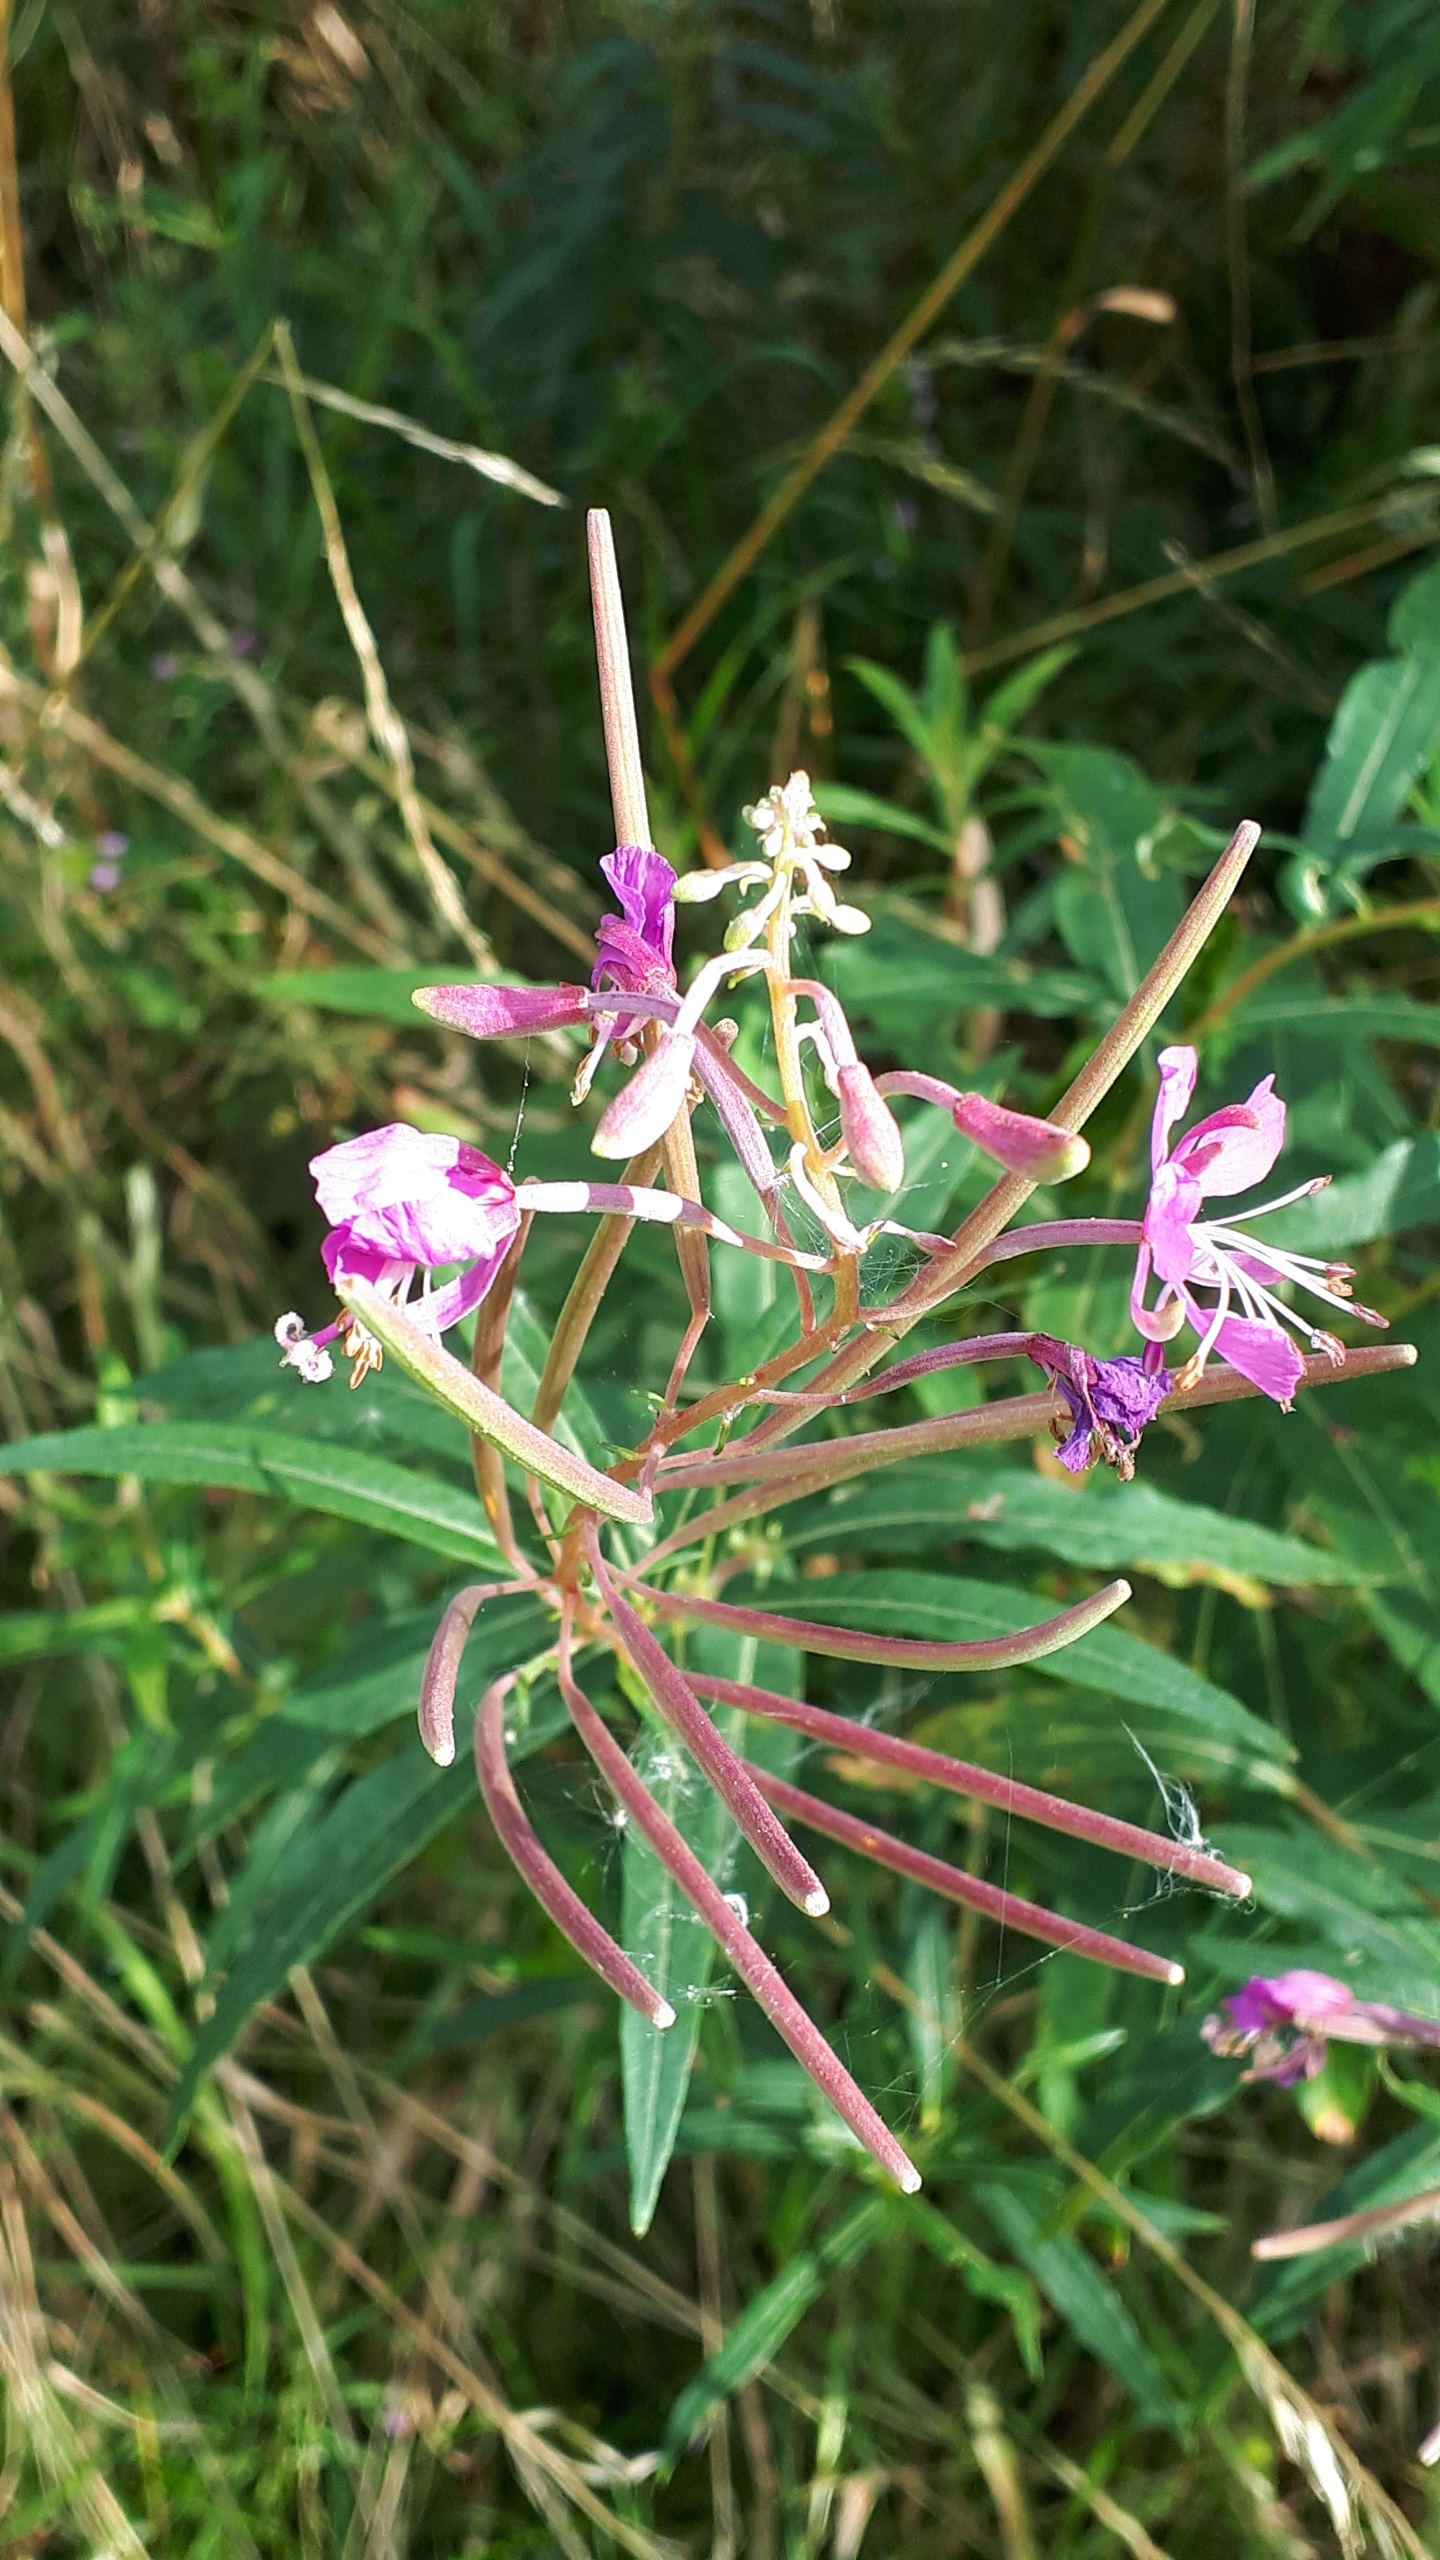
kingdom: Plantae
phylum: Tracheophyta
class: Magnoliopsida
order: Myrtales
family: Onagraceae
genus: Chamaenerion
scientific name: Chamaenerion angustifolium
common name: Gederams
